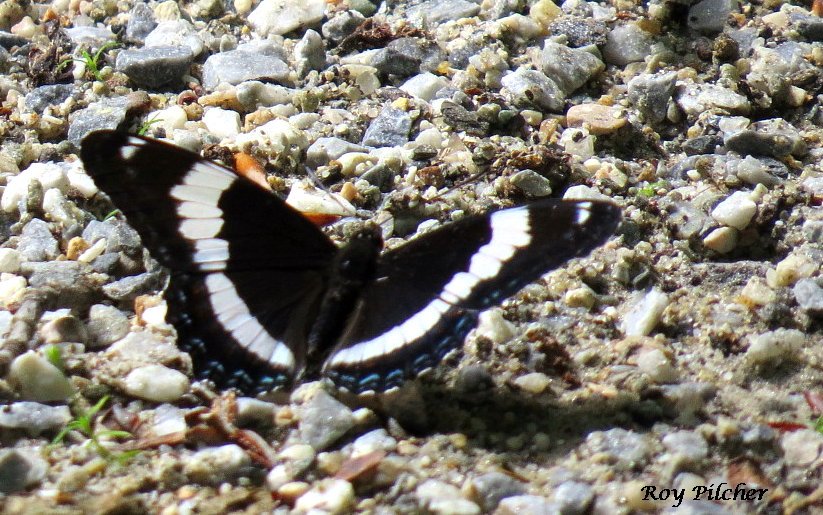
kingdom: Animalia
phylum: Arthropoda
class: Insecta
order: Lepidoptera
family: Nymphalidae
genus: Limenitis
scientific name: Limenitis arthemis
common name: Red-spotted Admiral
